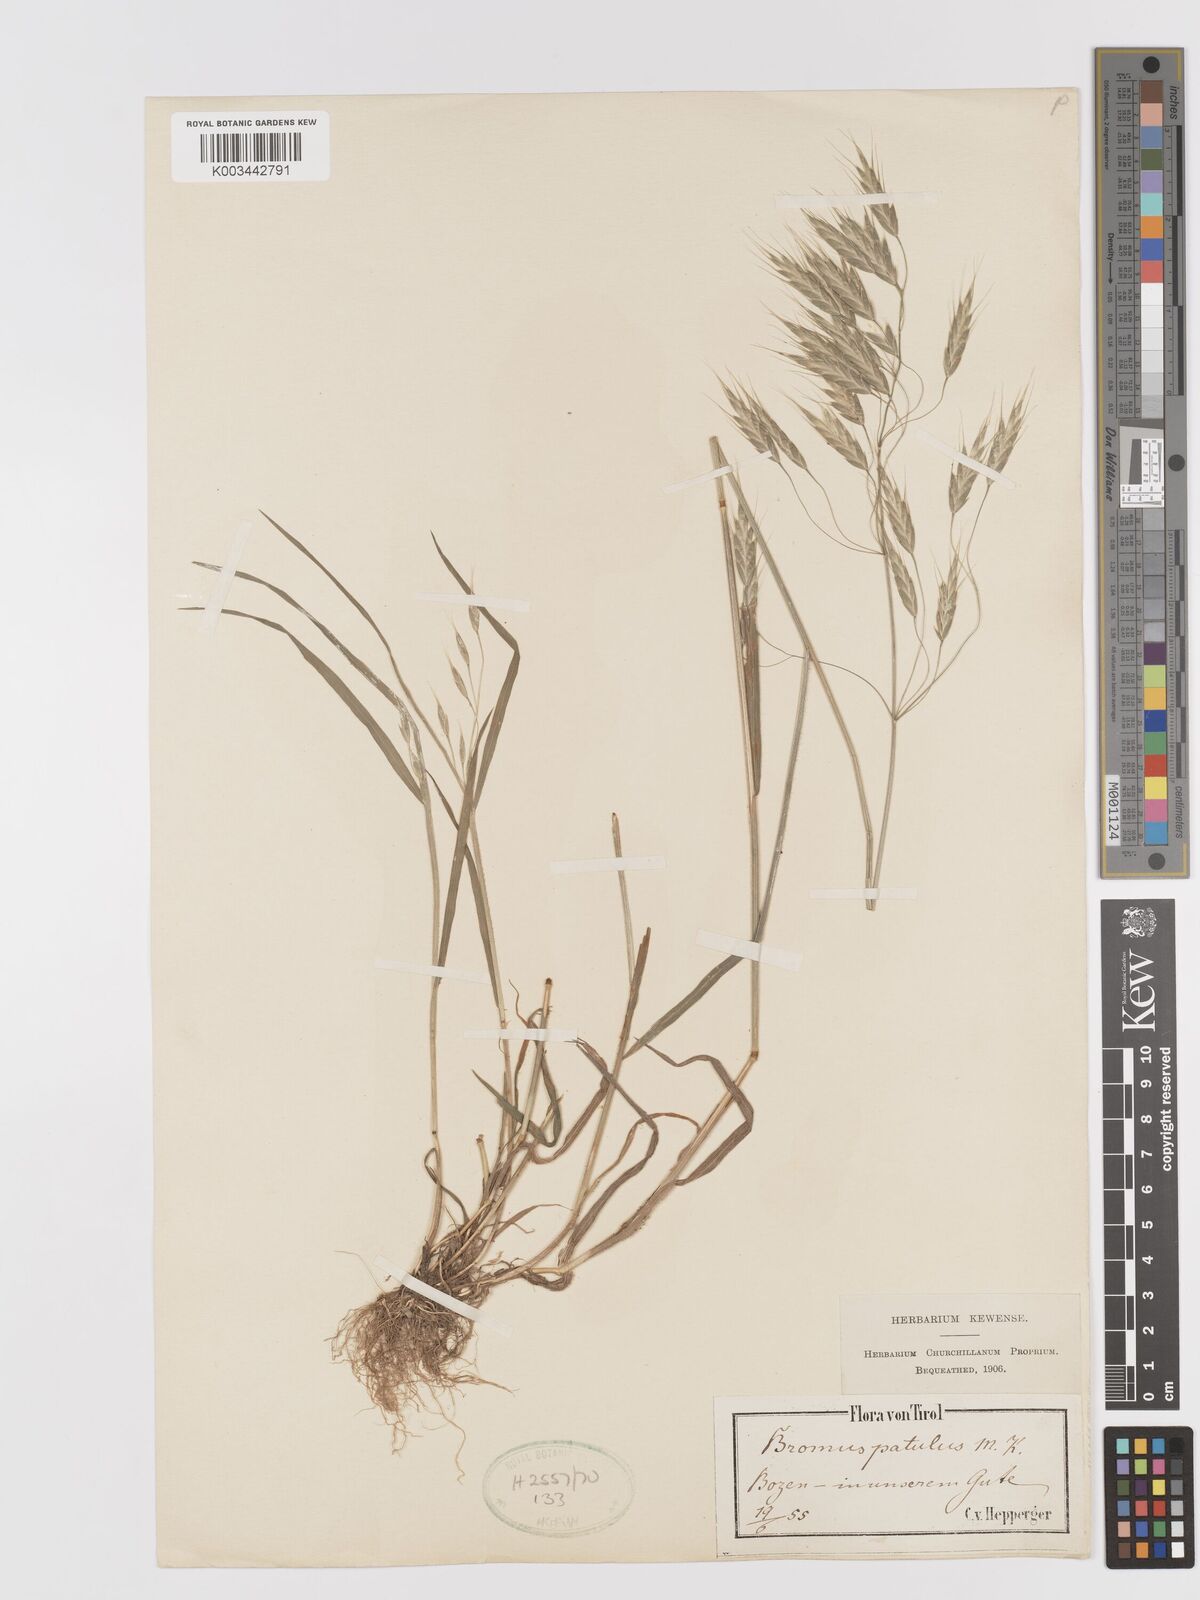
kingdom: Plantae
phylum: Tracheophyta
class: Liliopsida
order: Poales
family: Poaceae
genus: Bromus
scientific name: Bromus japonicus
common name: Japanese brome
